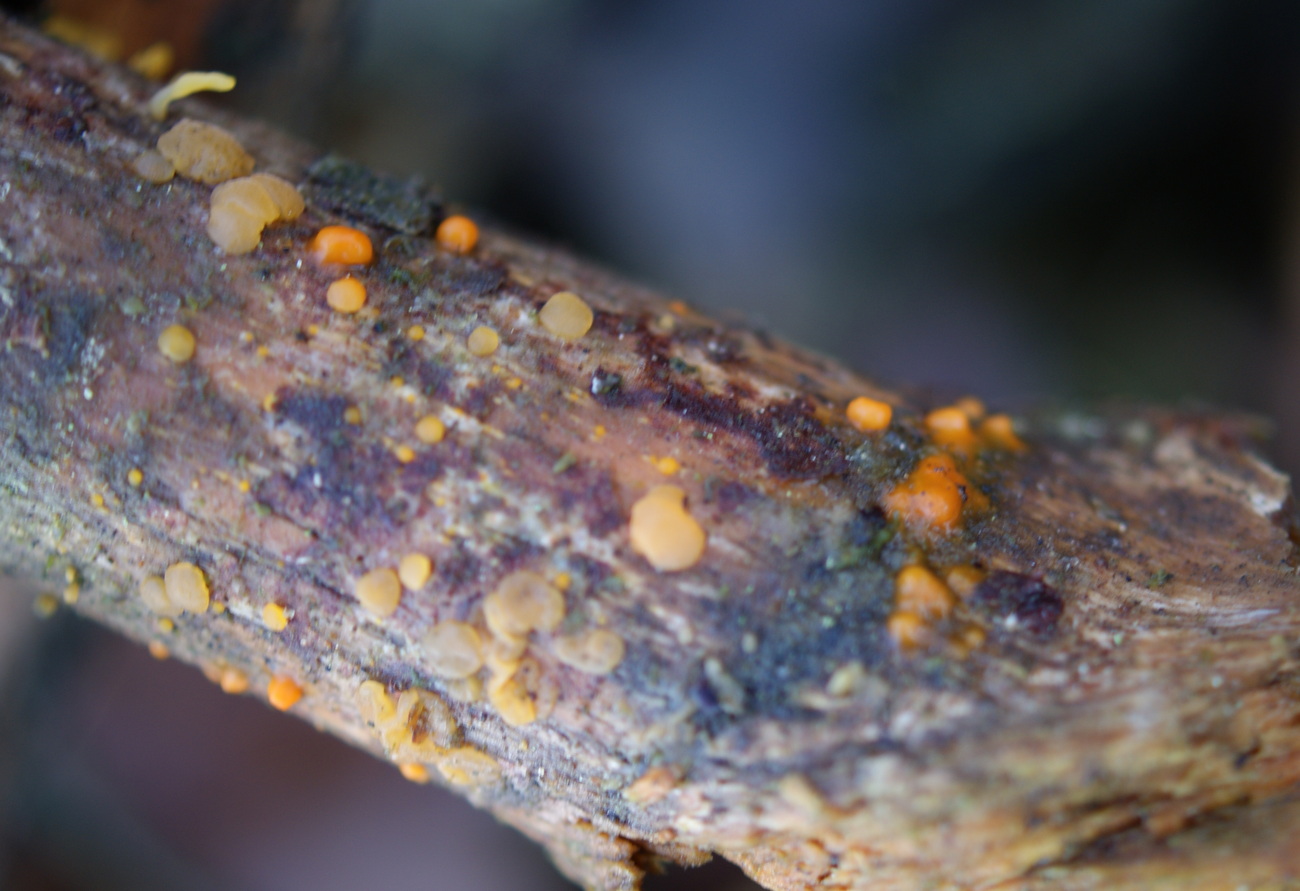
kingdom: Fungi
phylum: Basidiomycota
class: Dacrymycetes
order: Dacrymycetales
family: Dacrymycetaceae
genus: Dacrymyces
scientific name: Dacrymyces stillatus
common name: almindelig tåresvamp
